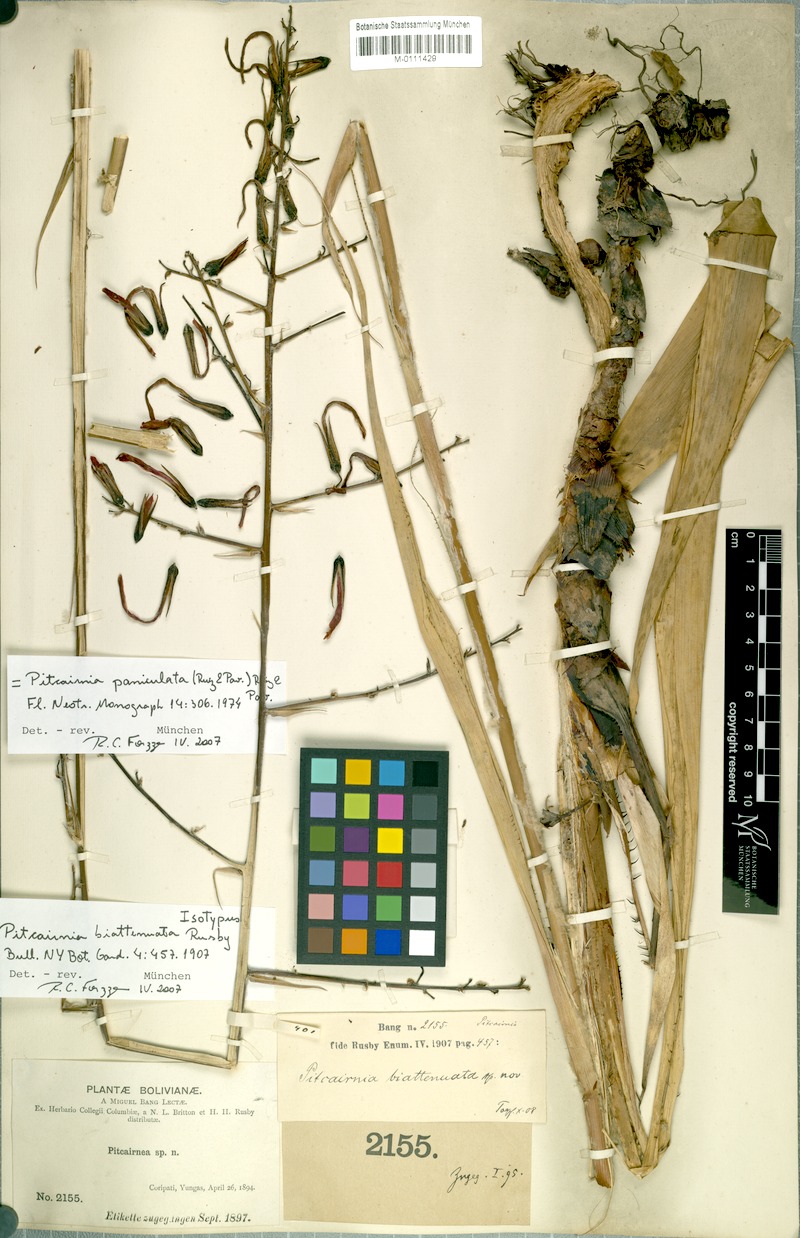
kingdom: Plantae
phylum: Tracheophyta
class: Liliopsida
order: Poales
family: Bromeliaceae
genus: Pitcairnia
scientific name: Pitcairnia paniculata
